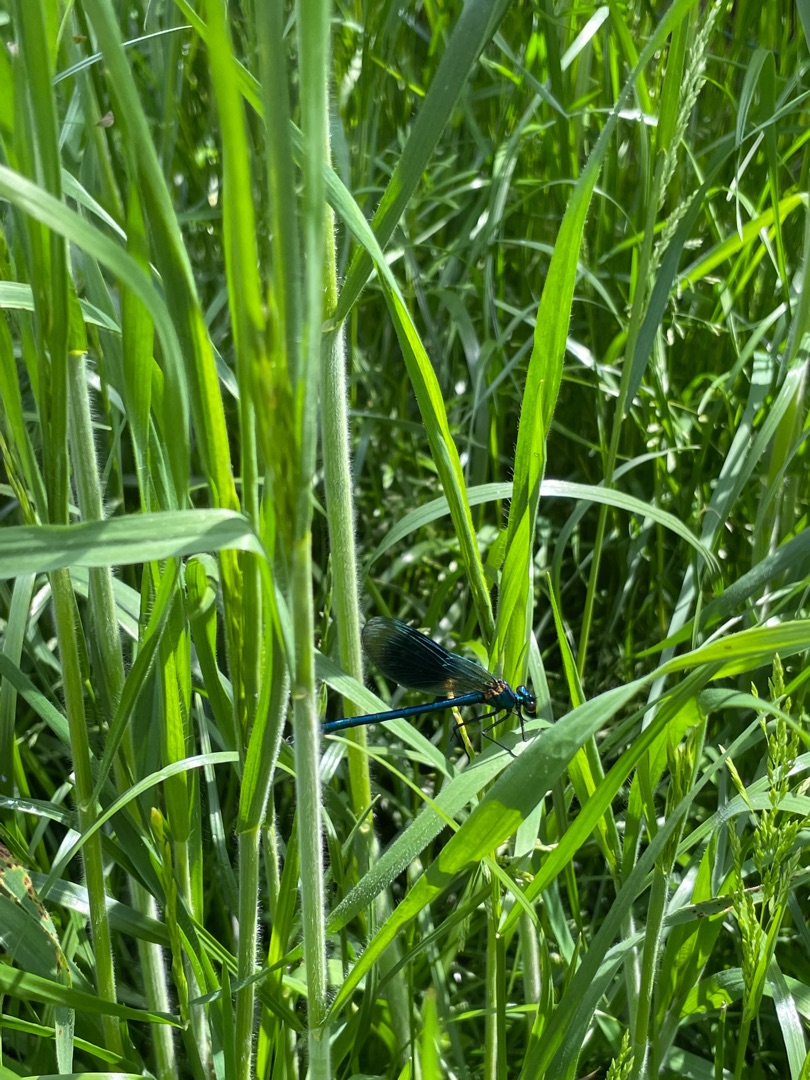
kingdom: Animalia
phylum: Arthropoda
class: Insecta
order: Odonata
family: Calopterygidae
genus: Calopteryx
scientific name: Calopteryx splendens
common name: Blåbåndet pragtvandnymfe
